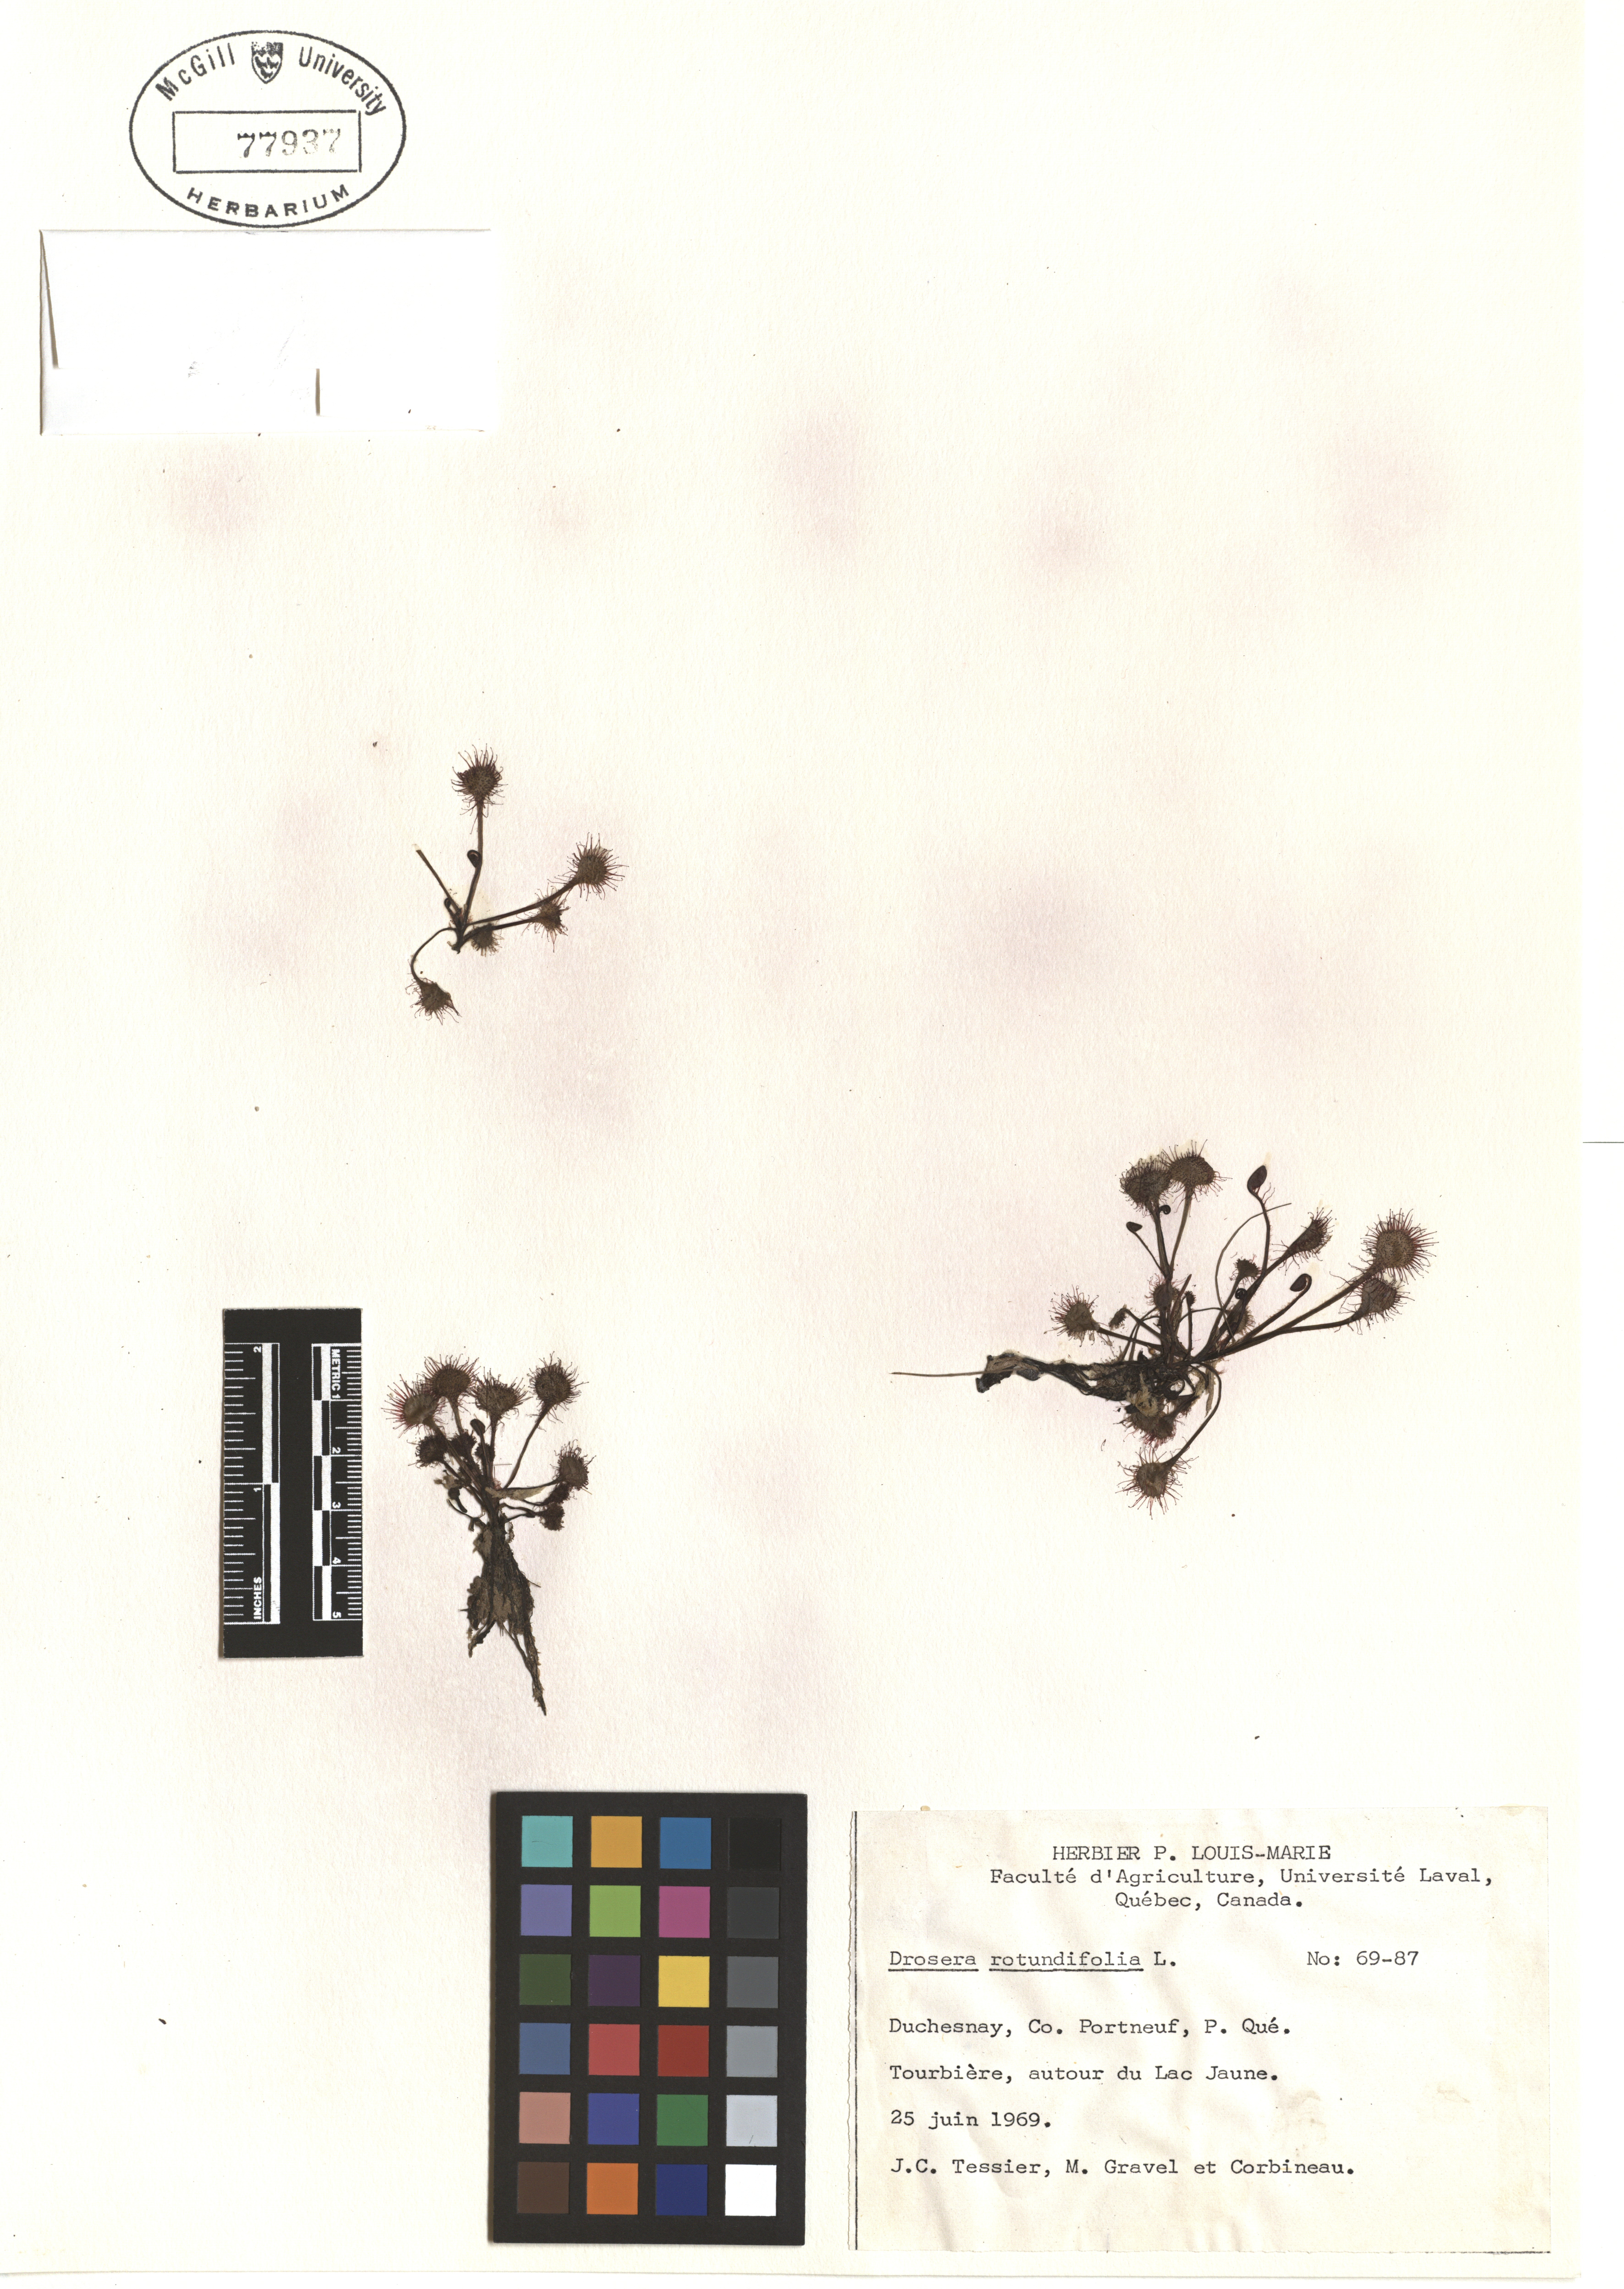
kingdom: Plantae
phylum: Tracheophyta
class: Magnoliopsida
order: Caryophyllales
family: Droseraceae
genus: Drosera
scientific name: Drosera rotundifolia
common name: Round-leaved sundew
